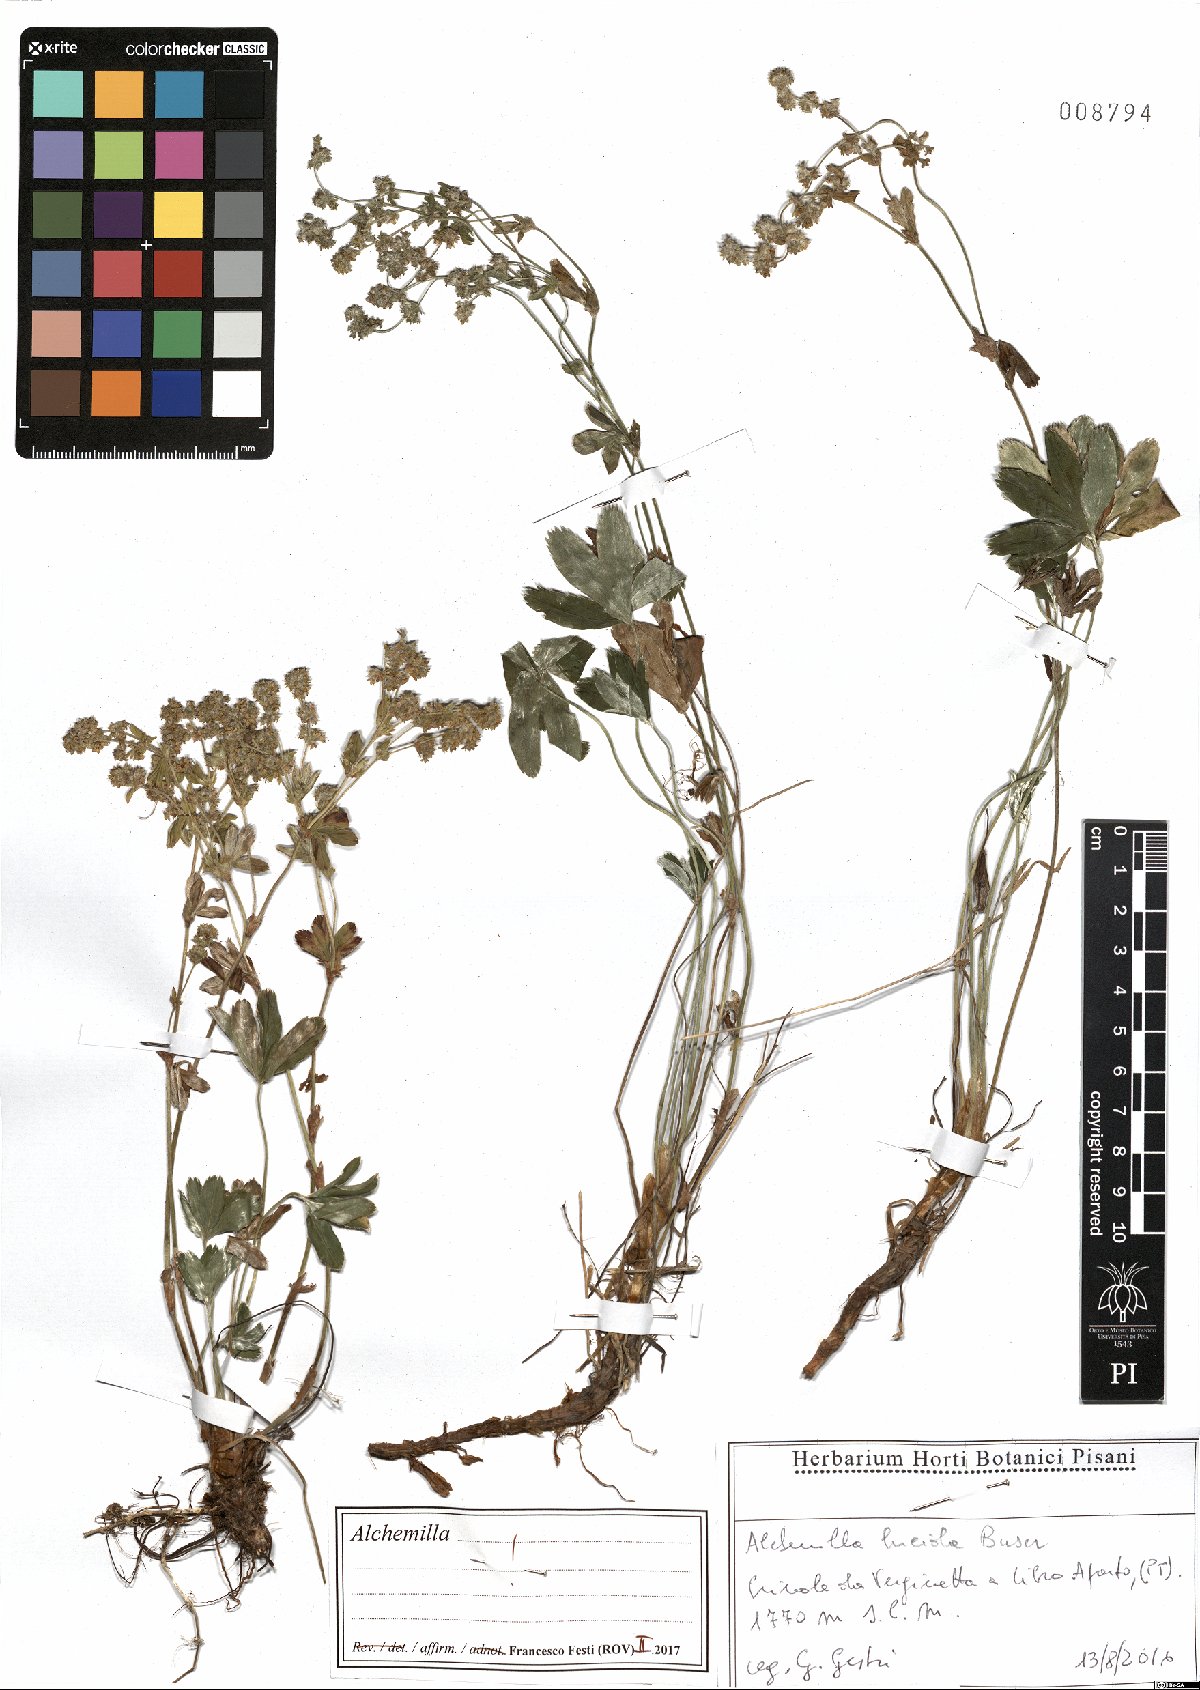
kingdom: Plantae
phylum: Tracheophyta
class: Magnoliopsida
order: Rosales
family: Rosaceae
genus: Alchemilla
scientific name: Alchemilla lucida
